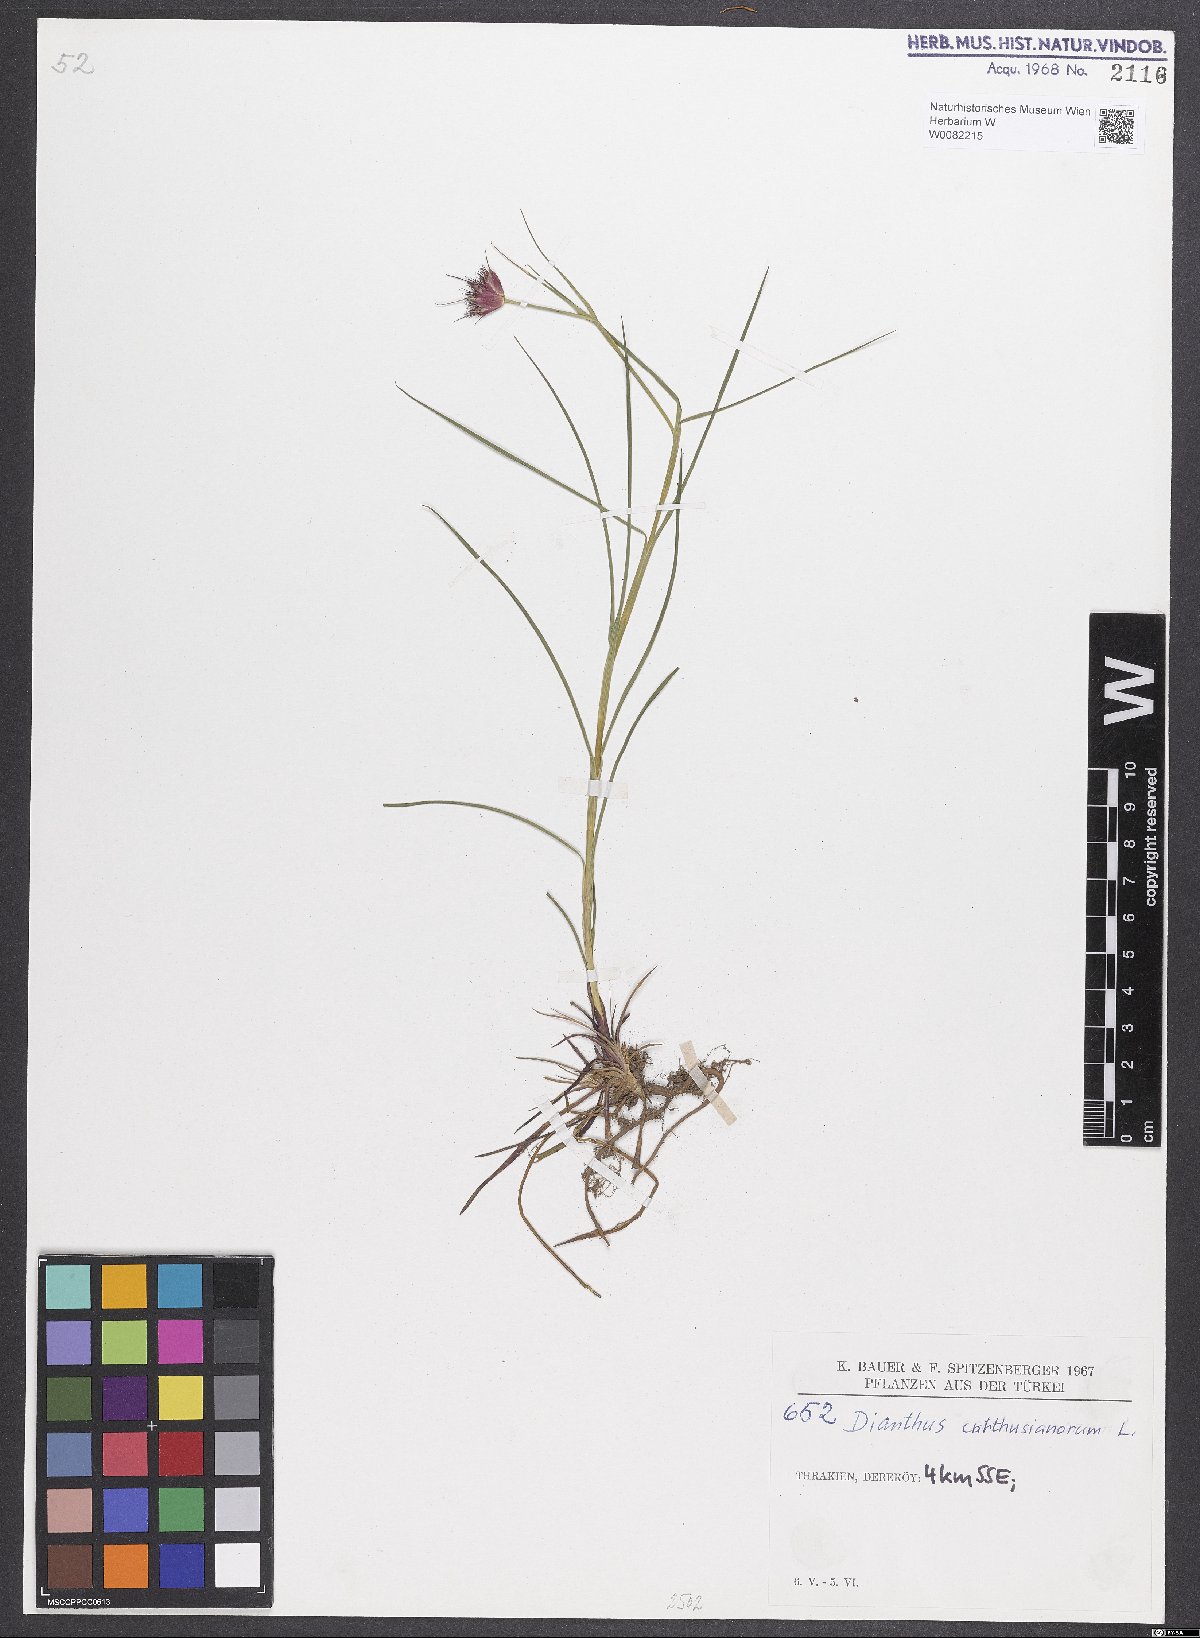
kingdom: Plantae
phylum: Tracheophyta
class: Magnoliopsida
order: Caryophyllales
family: Caryophyllaceae
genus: Dianthus
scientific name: Dianthus carthusianorum
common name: Carthusian pink
